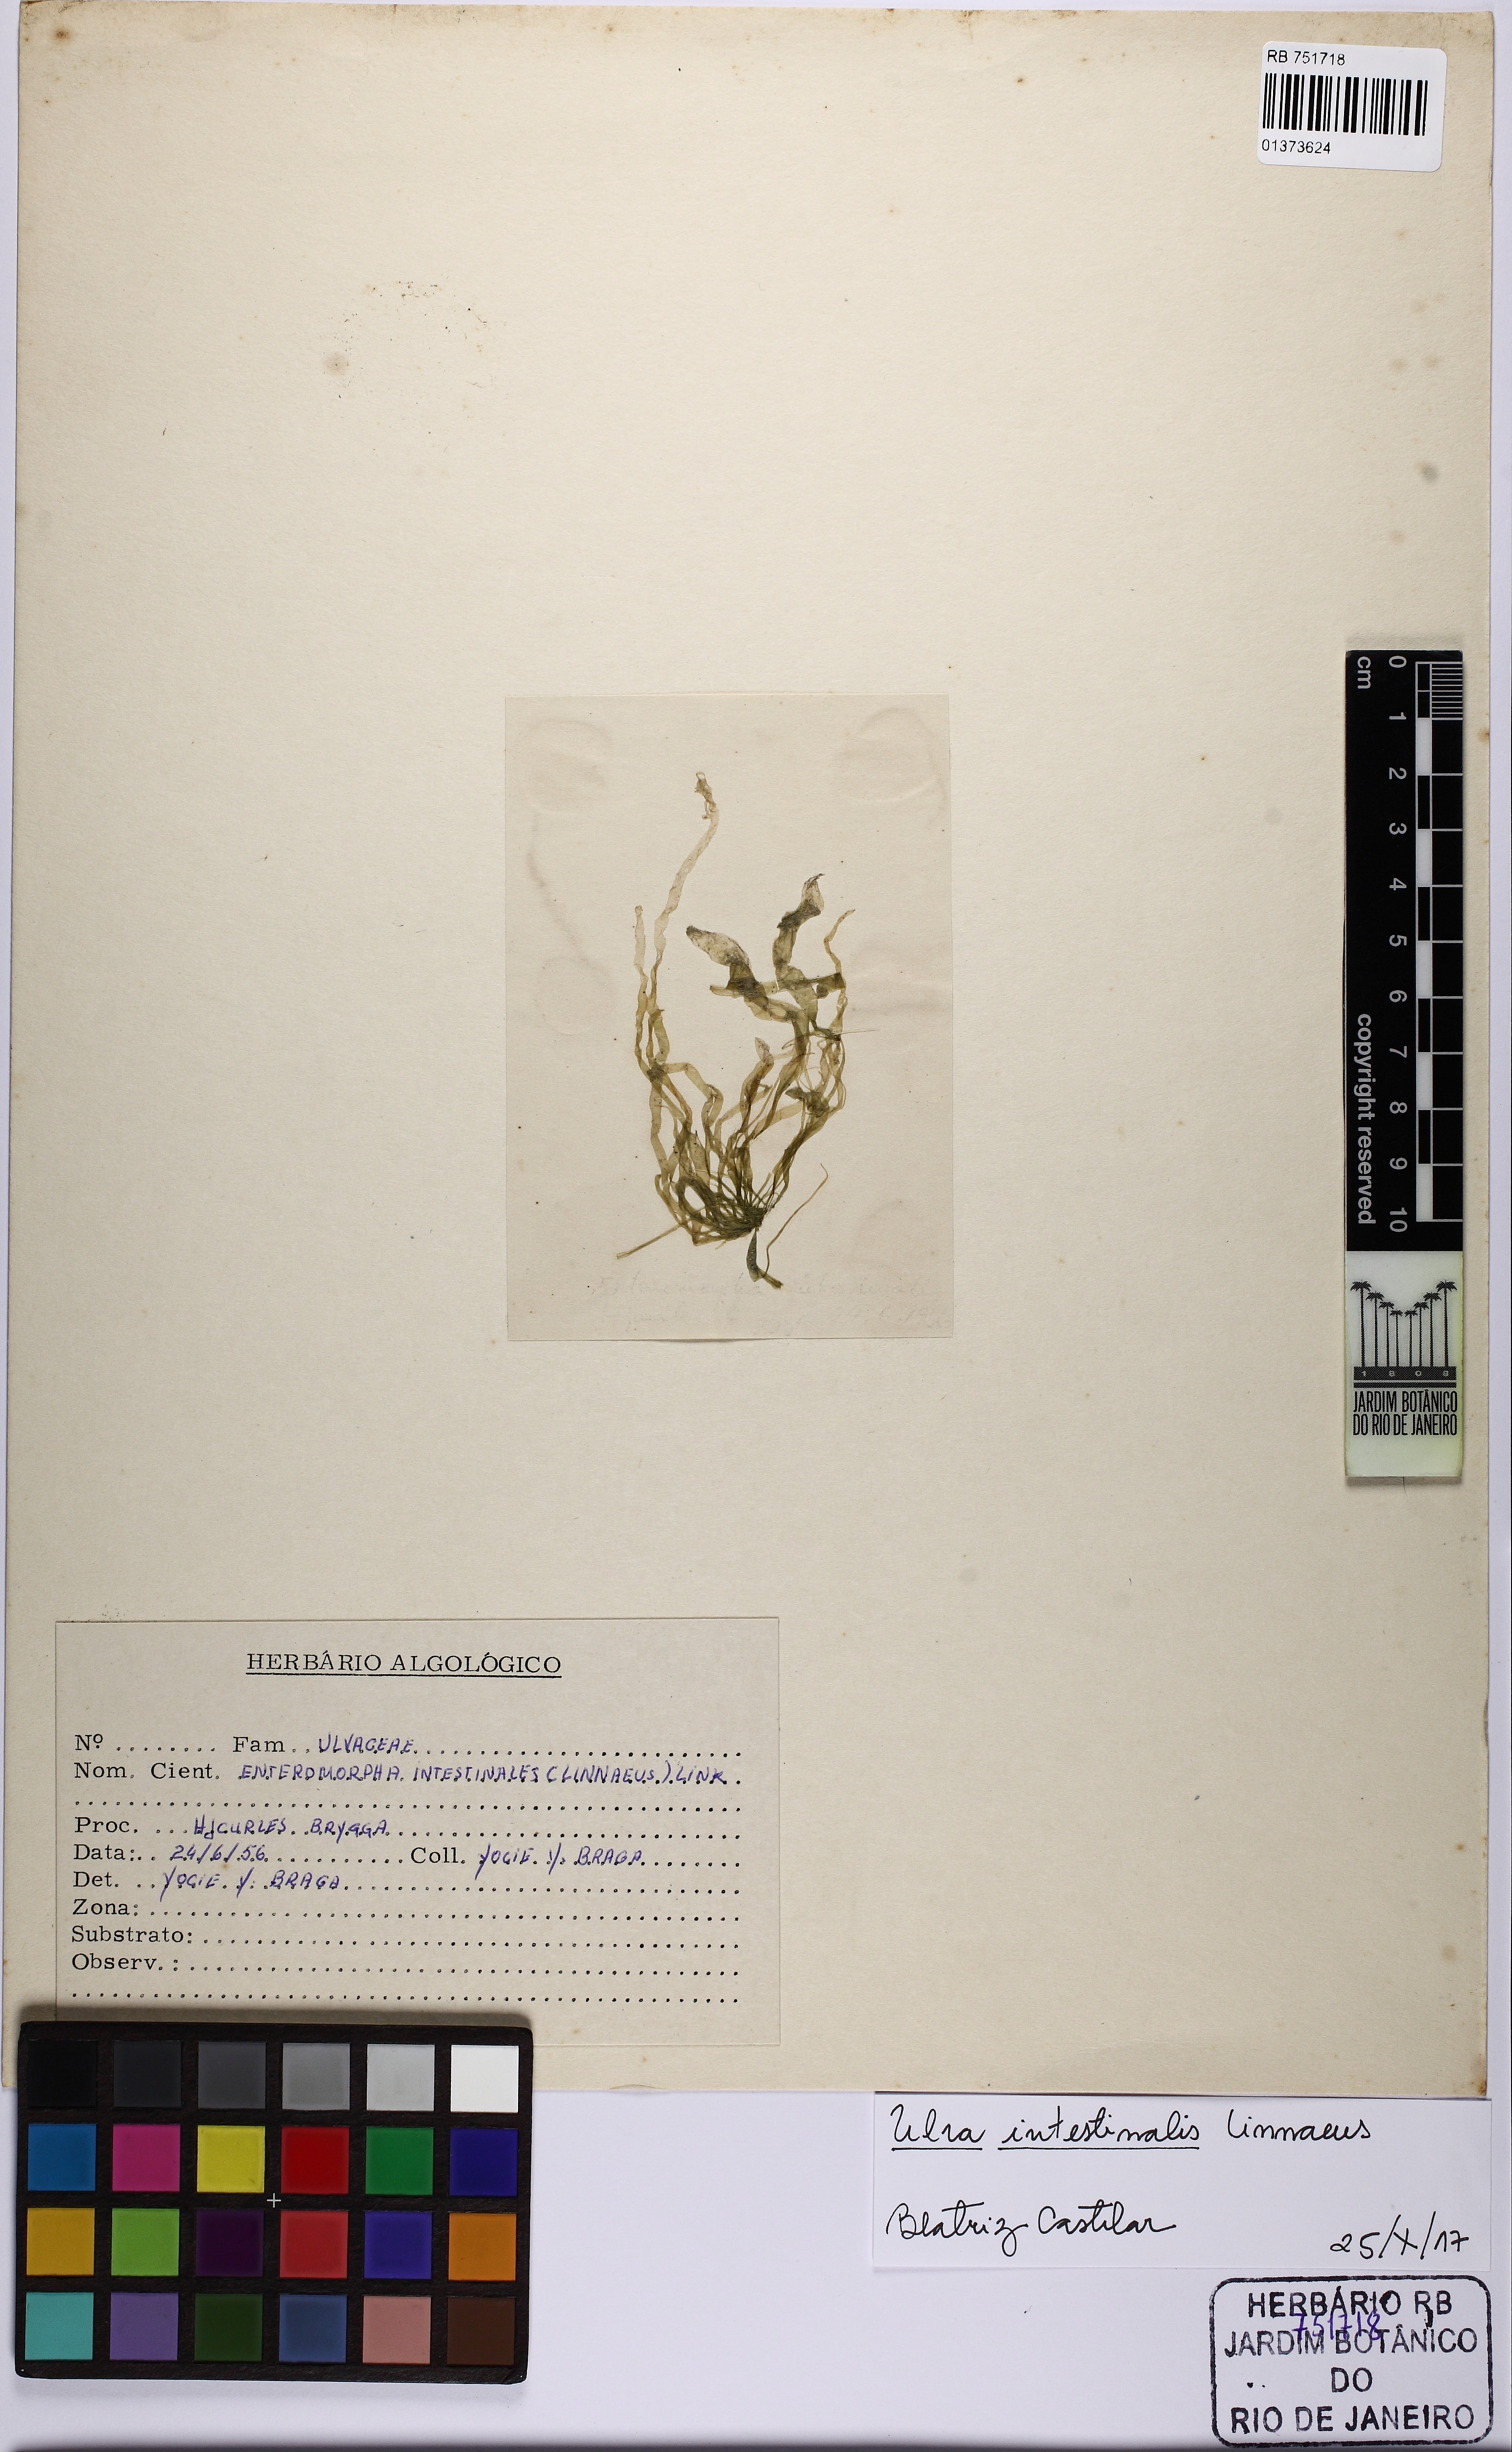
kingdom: Plantae
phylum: Chlorophyta
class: Ulvophyceae
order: Ulvales
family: Ulvaceae
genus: Ulva
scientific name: Ulva intestinalis
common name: Gut weed
